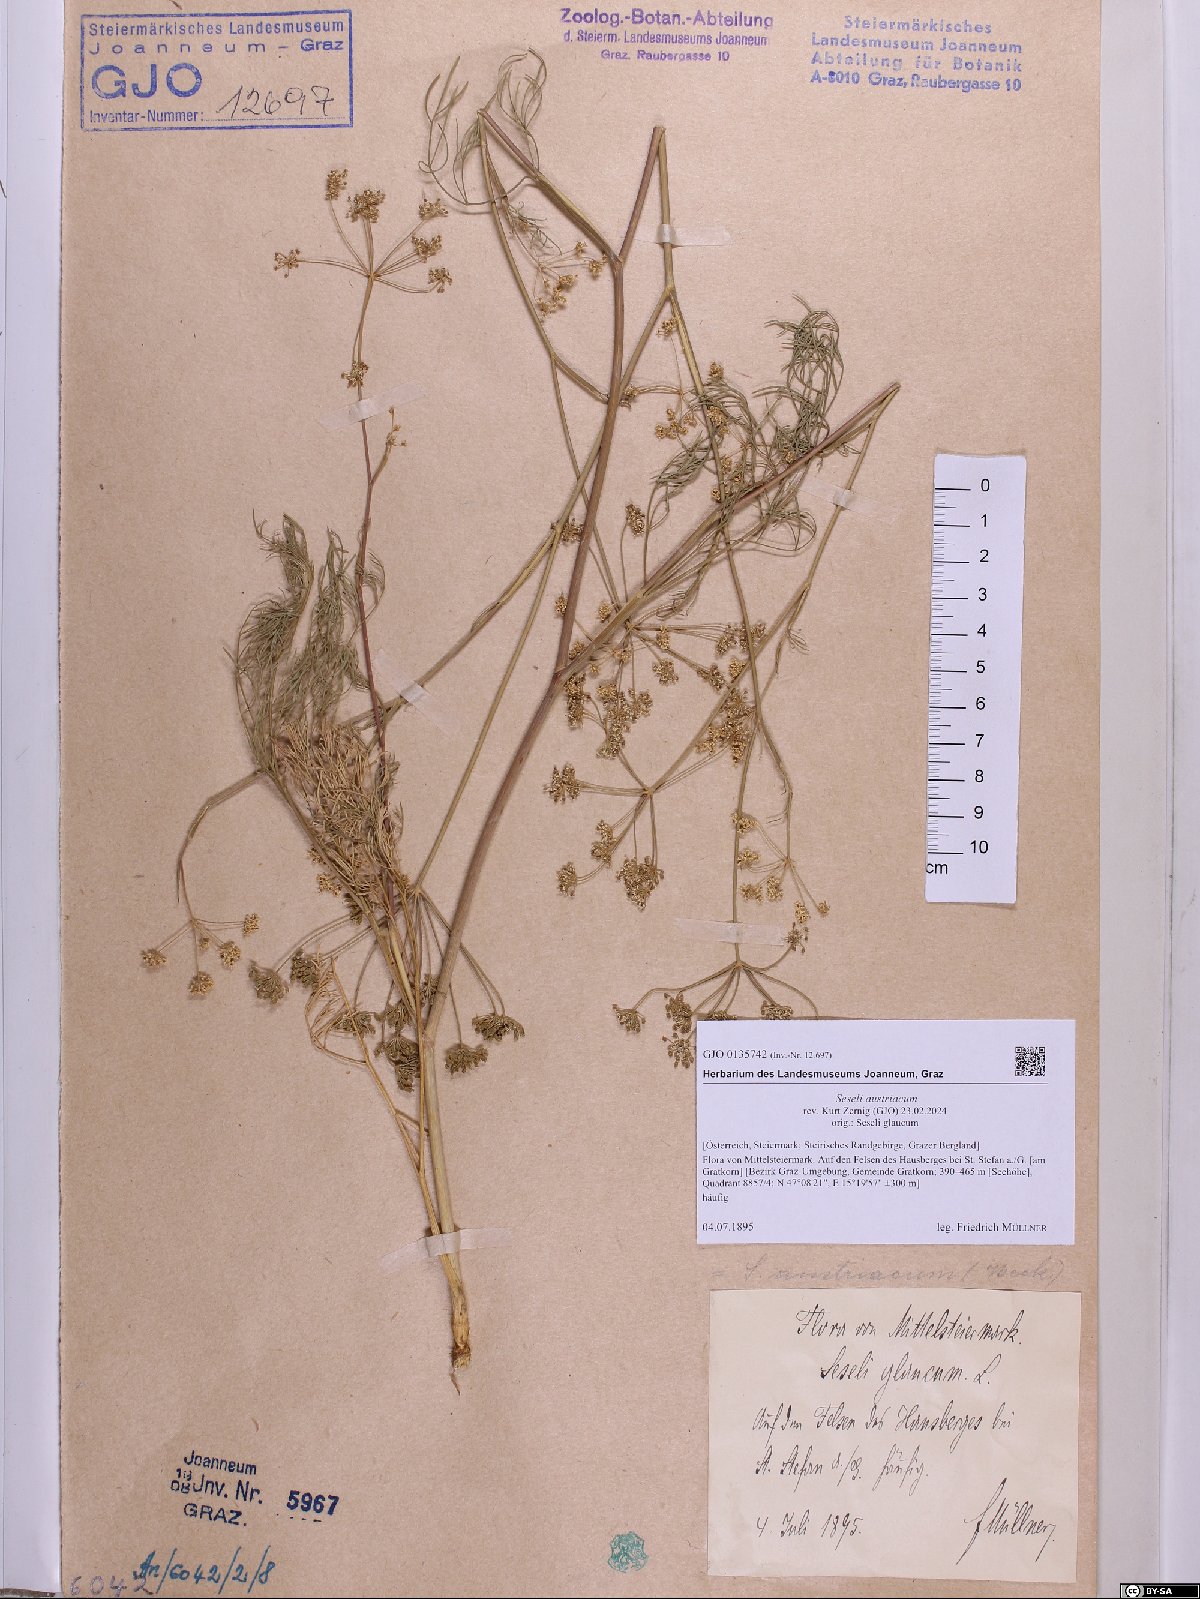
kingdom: Plantae
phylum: Tracheophyta
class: Magnoliopsida
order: Apiales
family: Apiaceae
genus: Seseli
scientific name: Seseli austriacum
